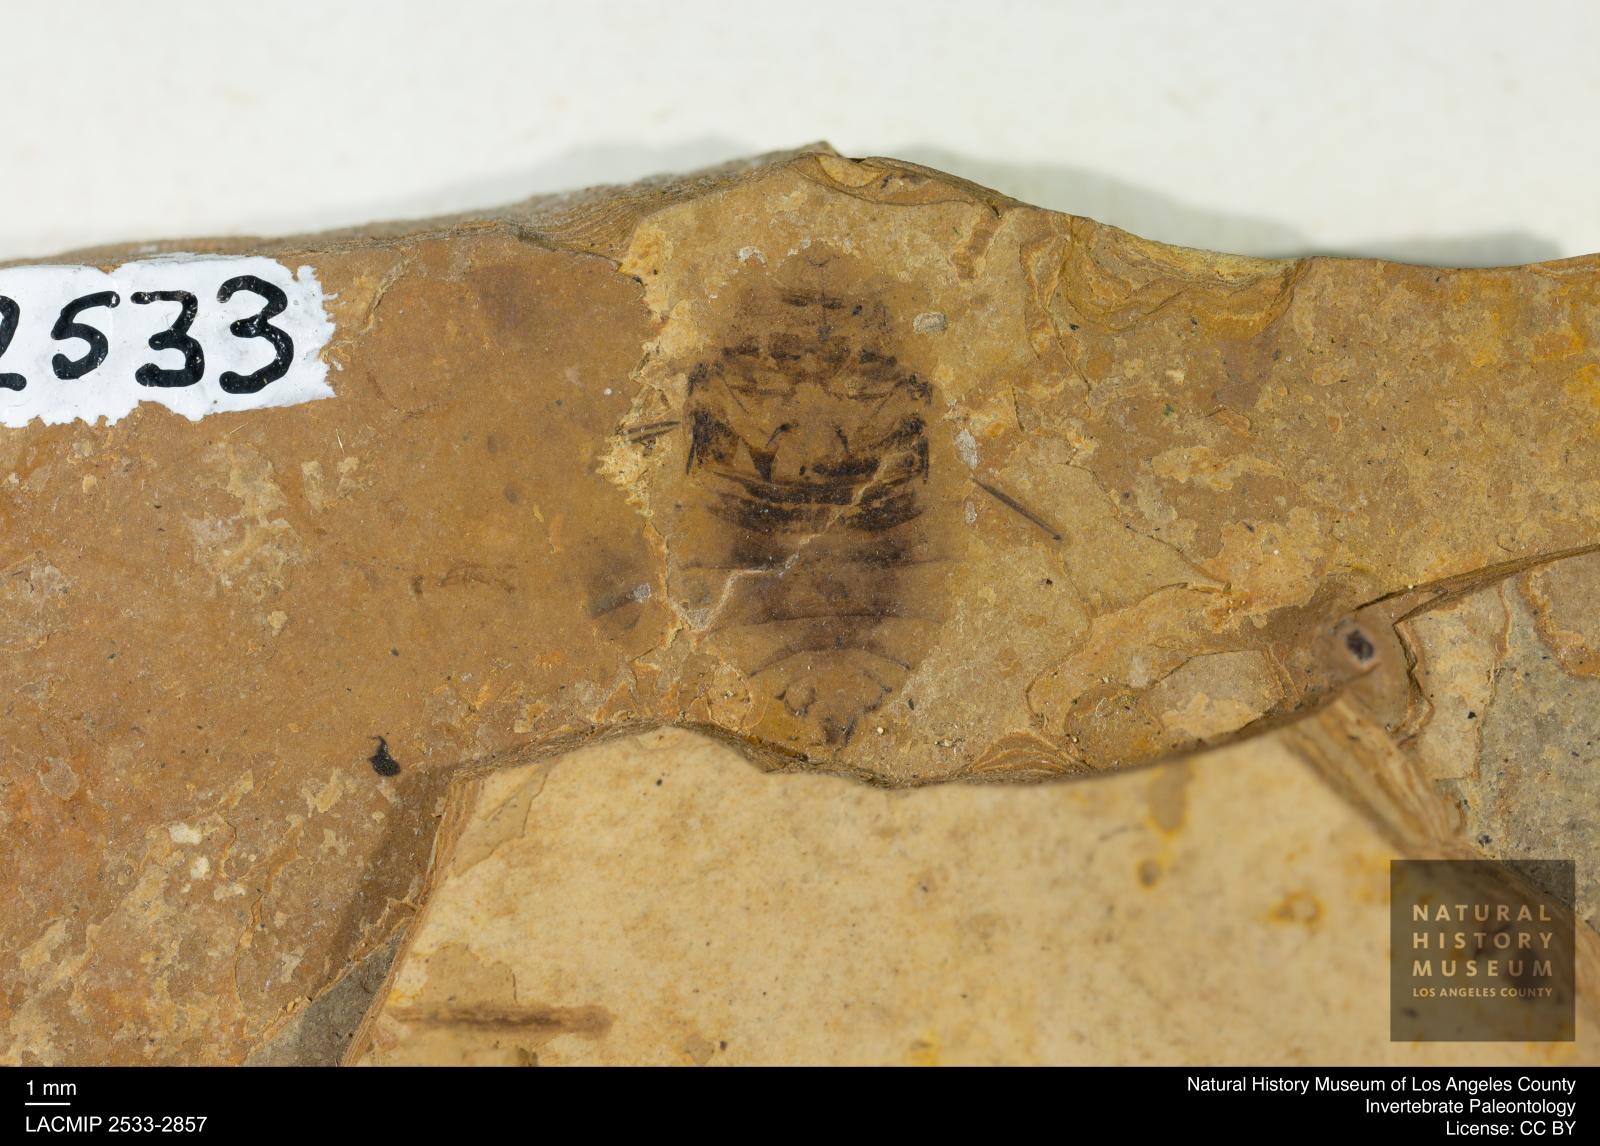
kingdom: Animalia
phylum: Arthropoda
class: Insecta
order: Hemiptera
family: Naucoridae
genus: Naucoris
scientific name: Naucoris rottensis
